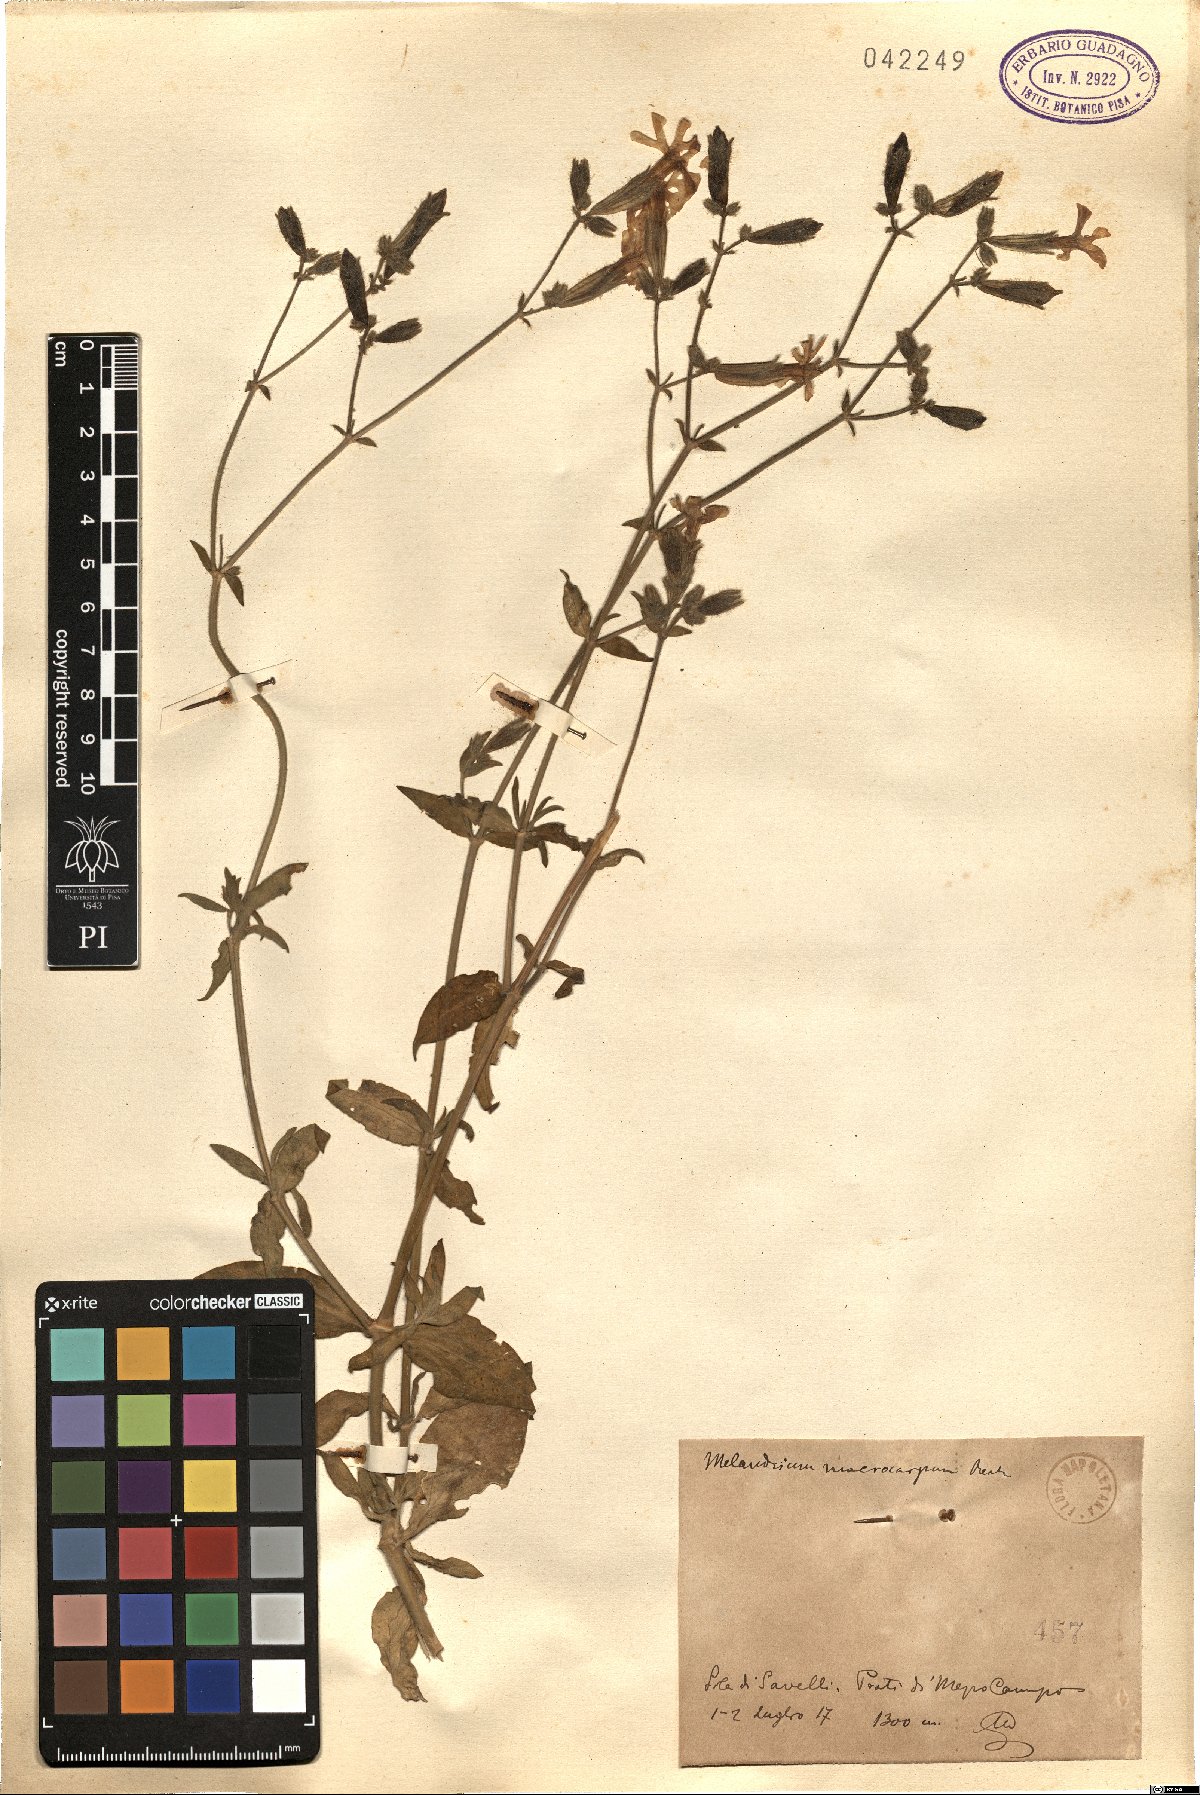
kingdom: Plantae
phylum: Tracheophyta
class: Magnoliopsida
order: Caryophyllales
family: Caryophyllaceae
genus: Silene
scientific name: Silene latifolia
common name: White campion
